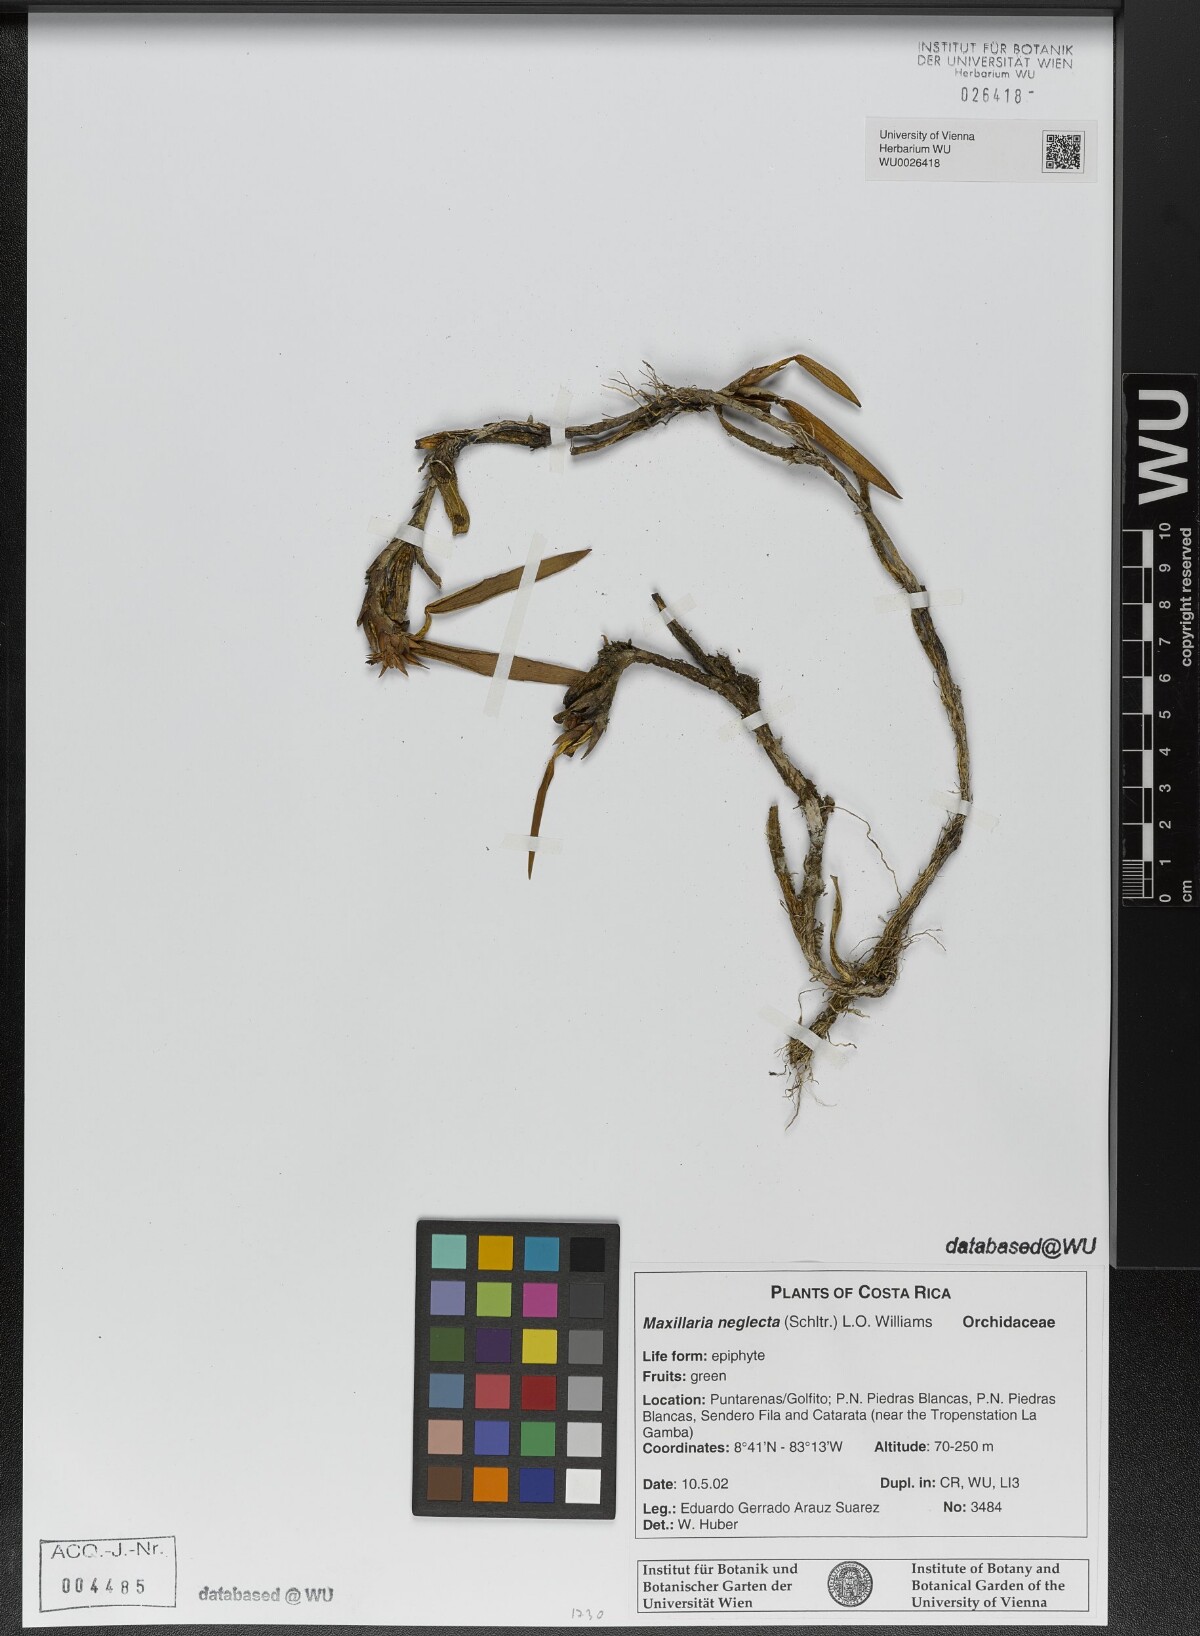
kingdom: Plantae
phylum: Tracheophyta
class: Liliopsida
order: Asparagales
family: Orchidaceae
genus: Maxillaria
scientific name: Maxillaria neglecta
